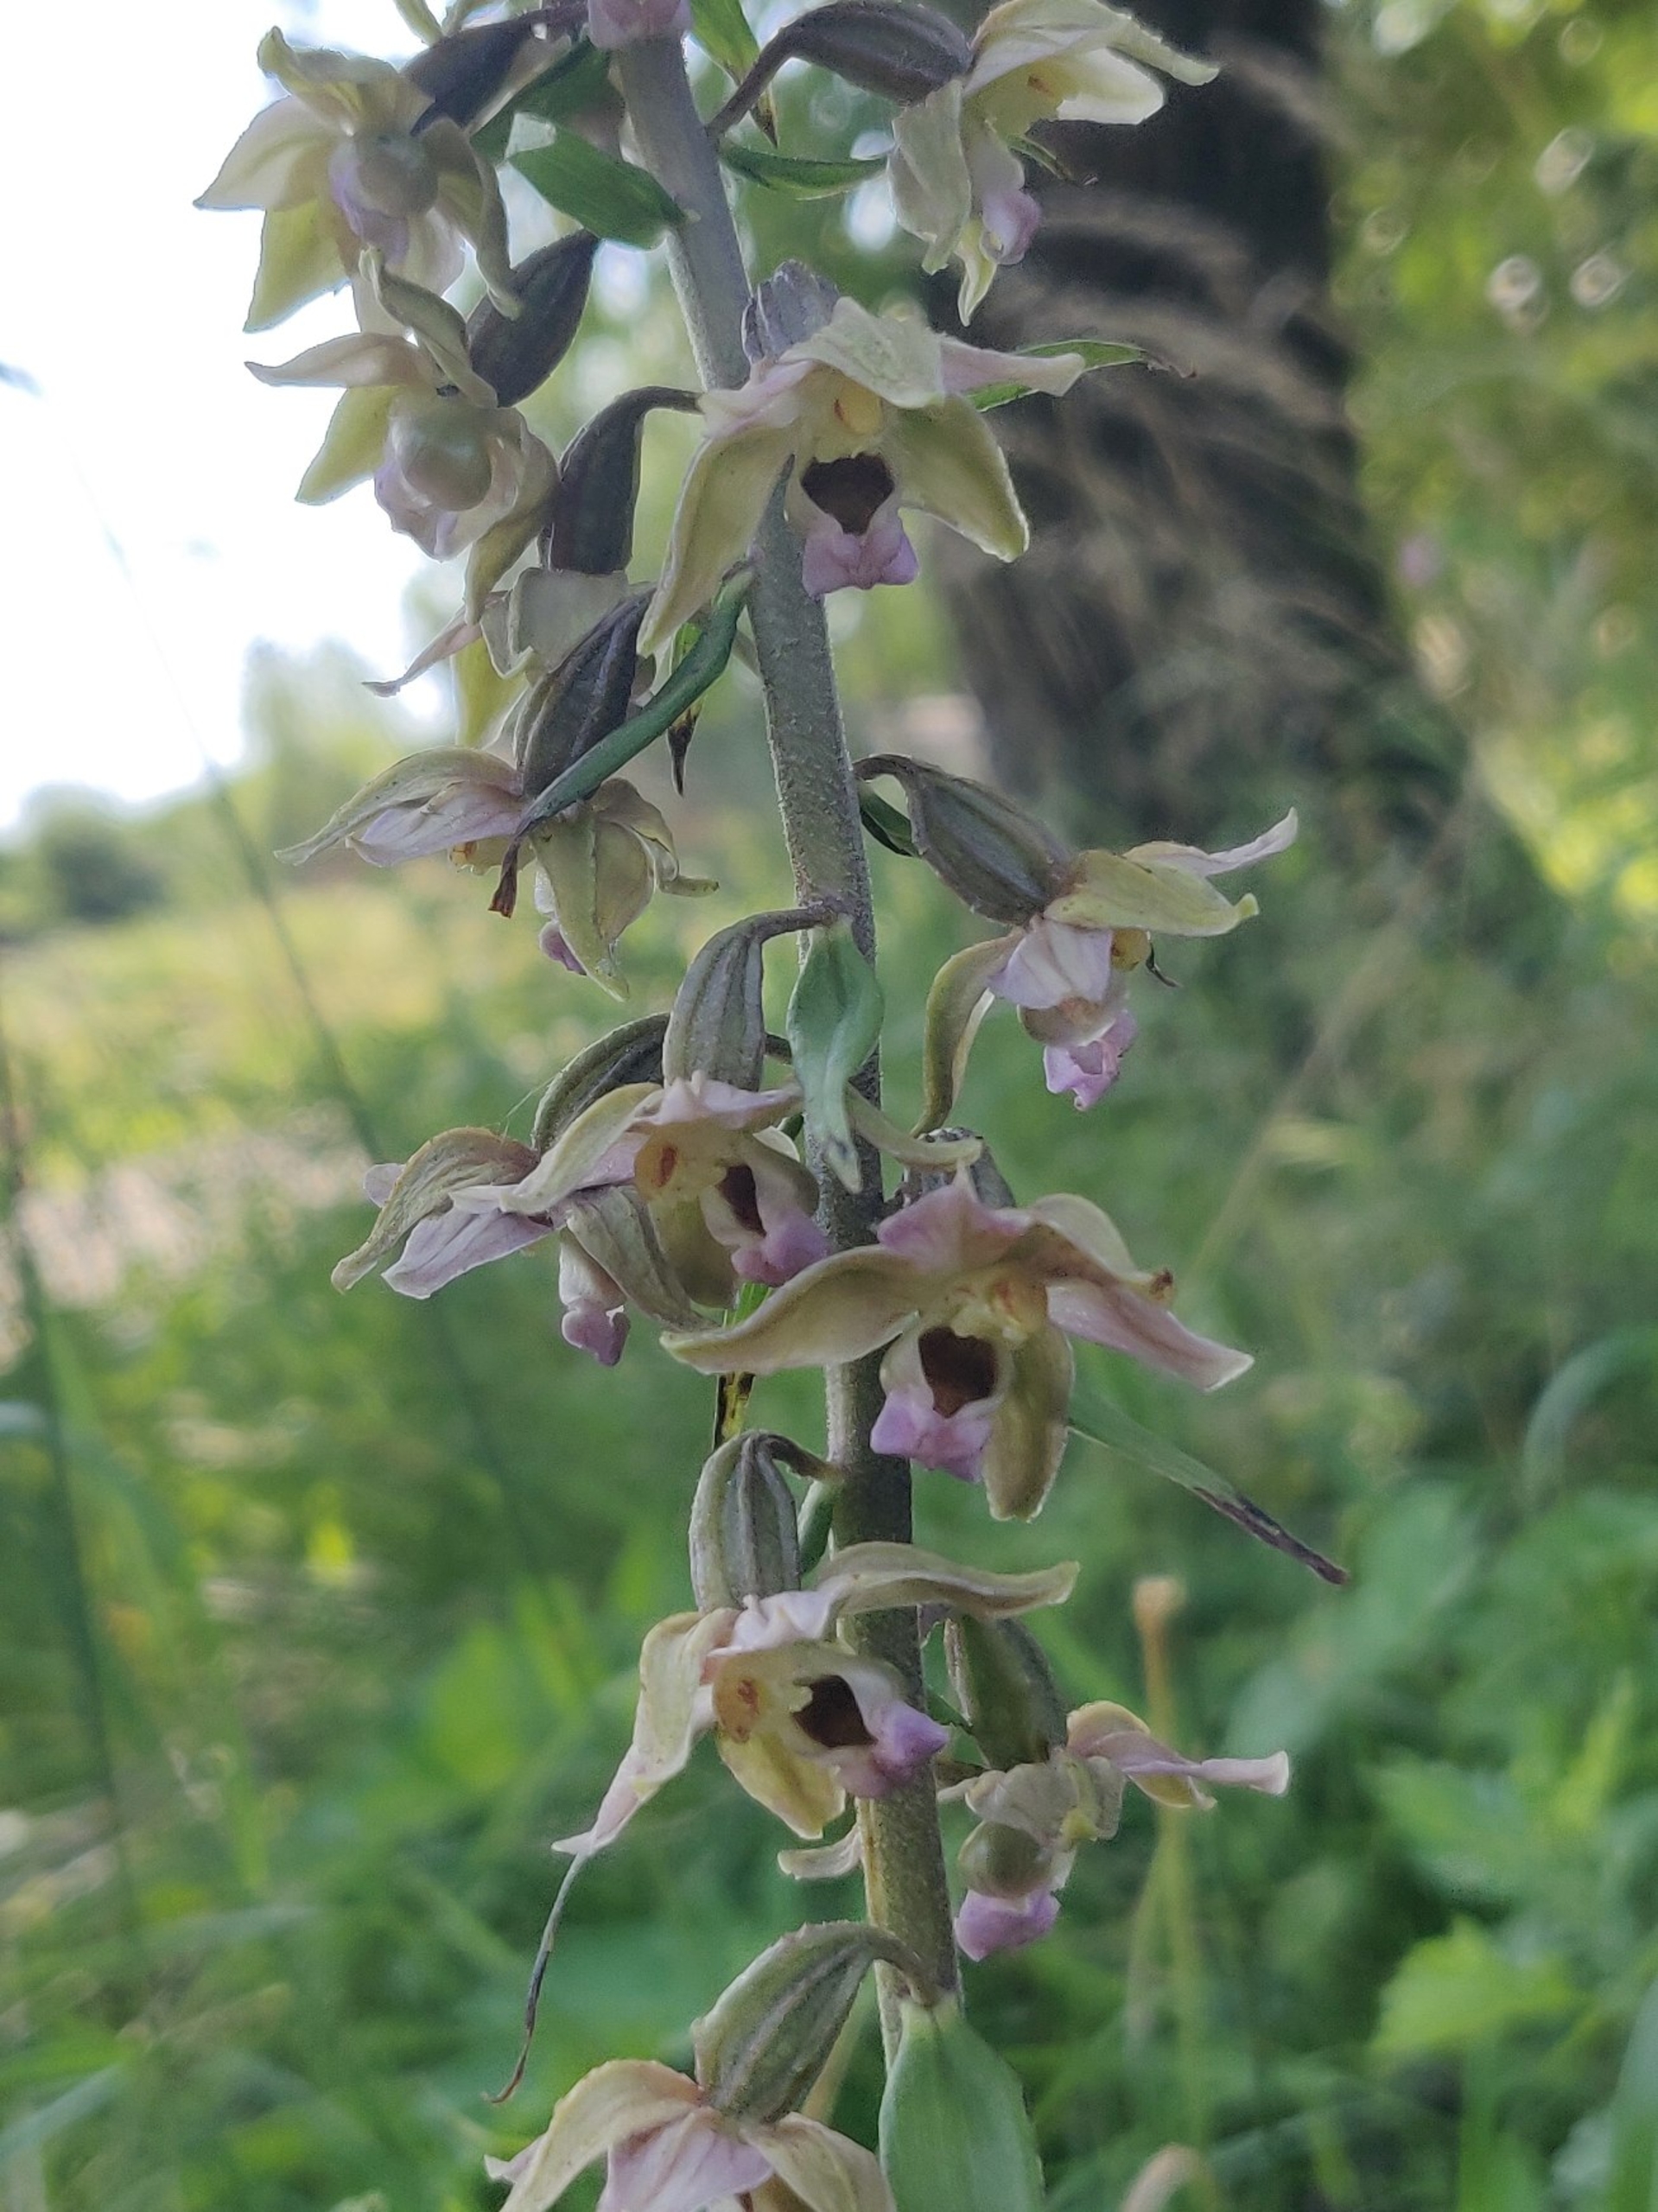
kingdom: Plantae
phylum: Tracheophyta
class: Liliopsida
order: Asparagales
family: Orchidaceae
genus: Epipactis
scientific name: Epipactis helleborine
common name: Skov-hullæbe
